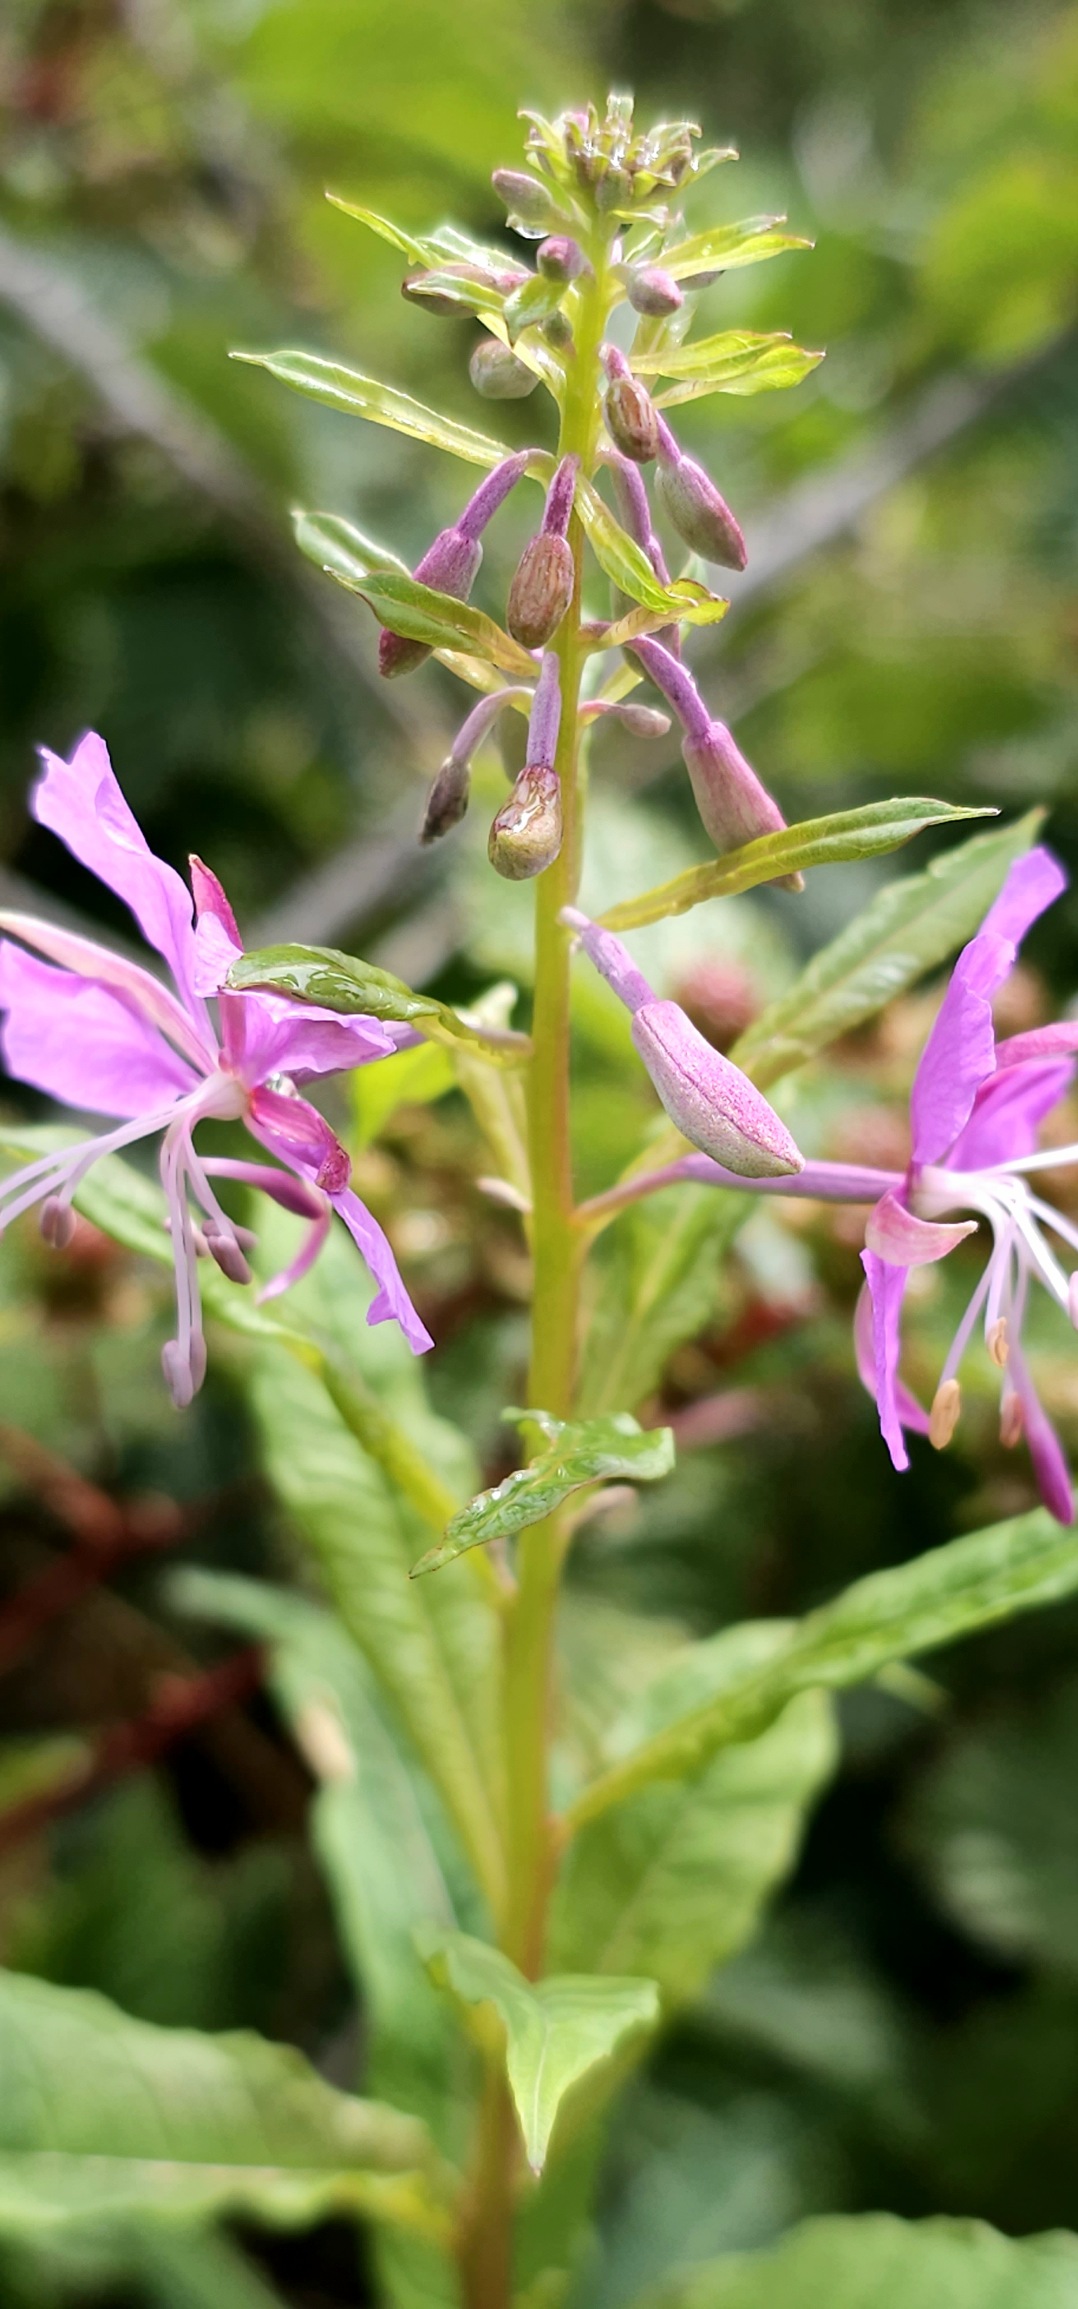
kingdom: Plantae
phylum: Tracheophyta
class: Magnoliopsida
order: Myrtales
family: Onagraceae
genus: Chamaenerion
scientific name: Chamaenerion angustifolium
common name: Gederams
